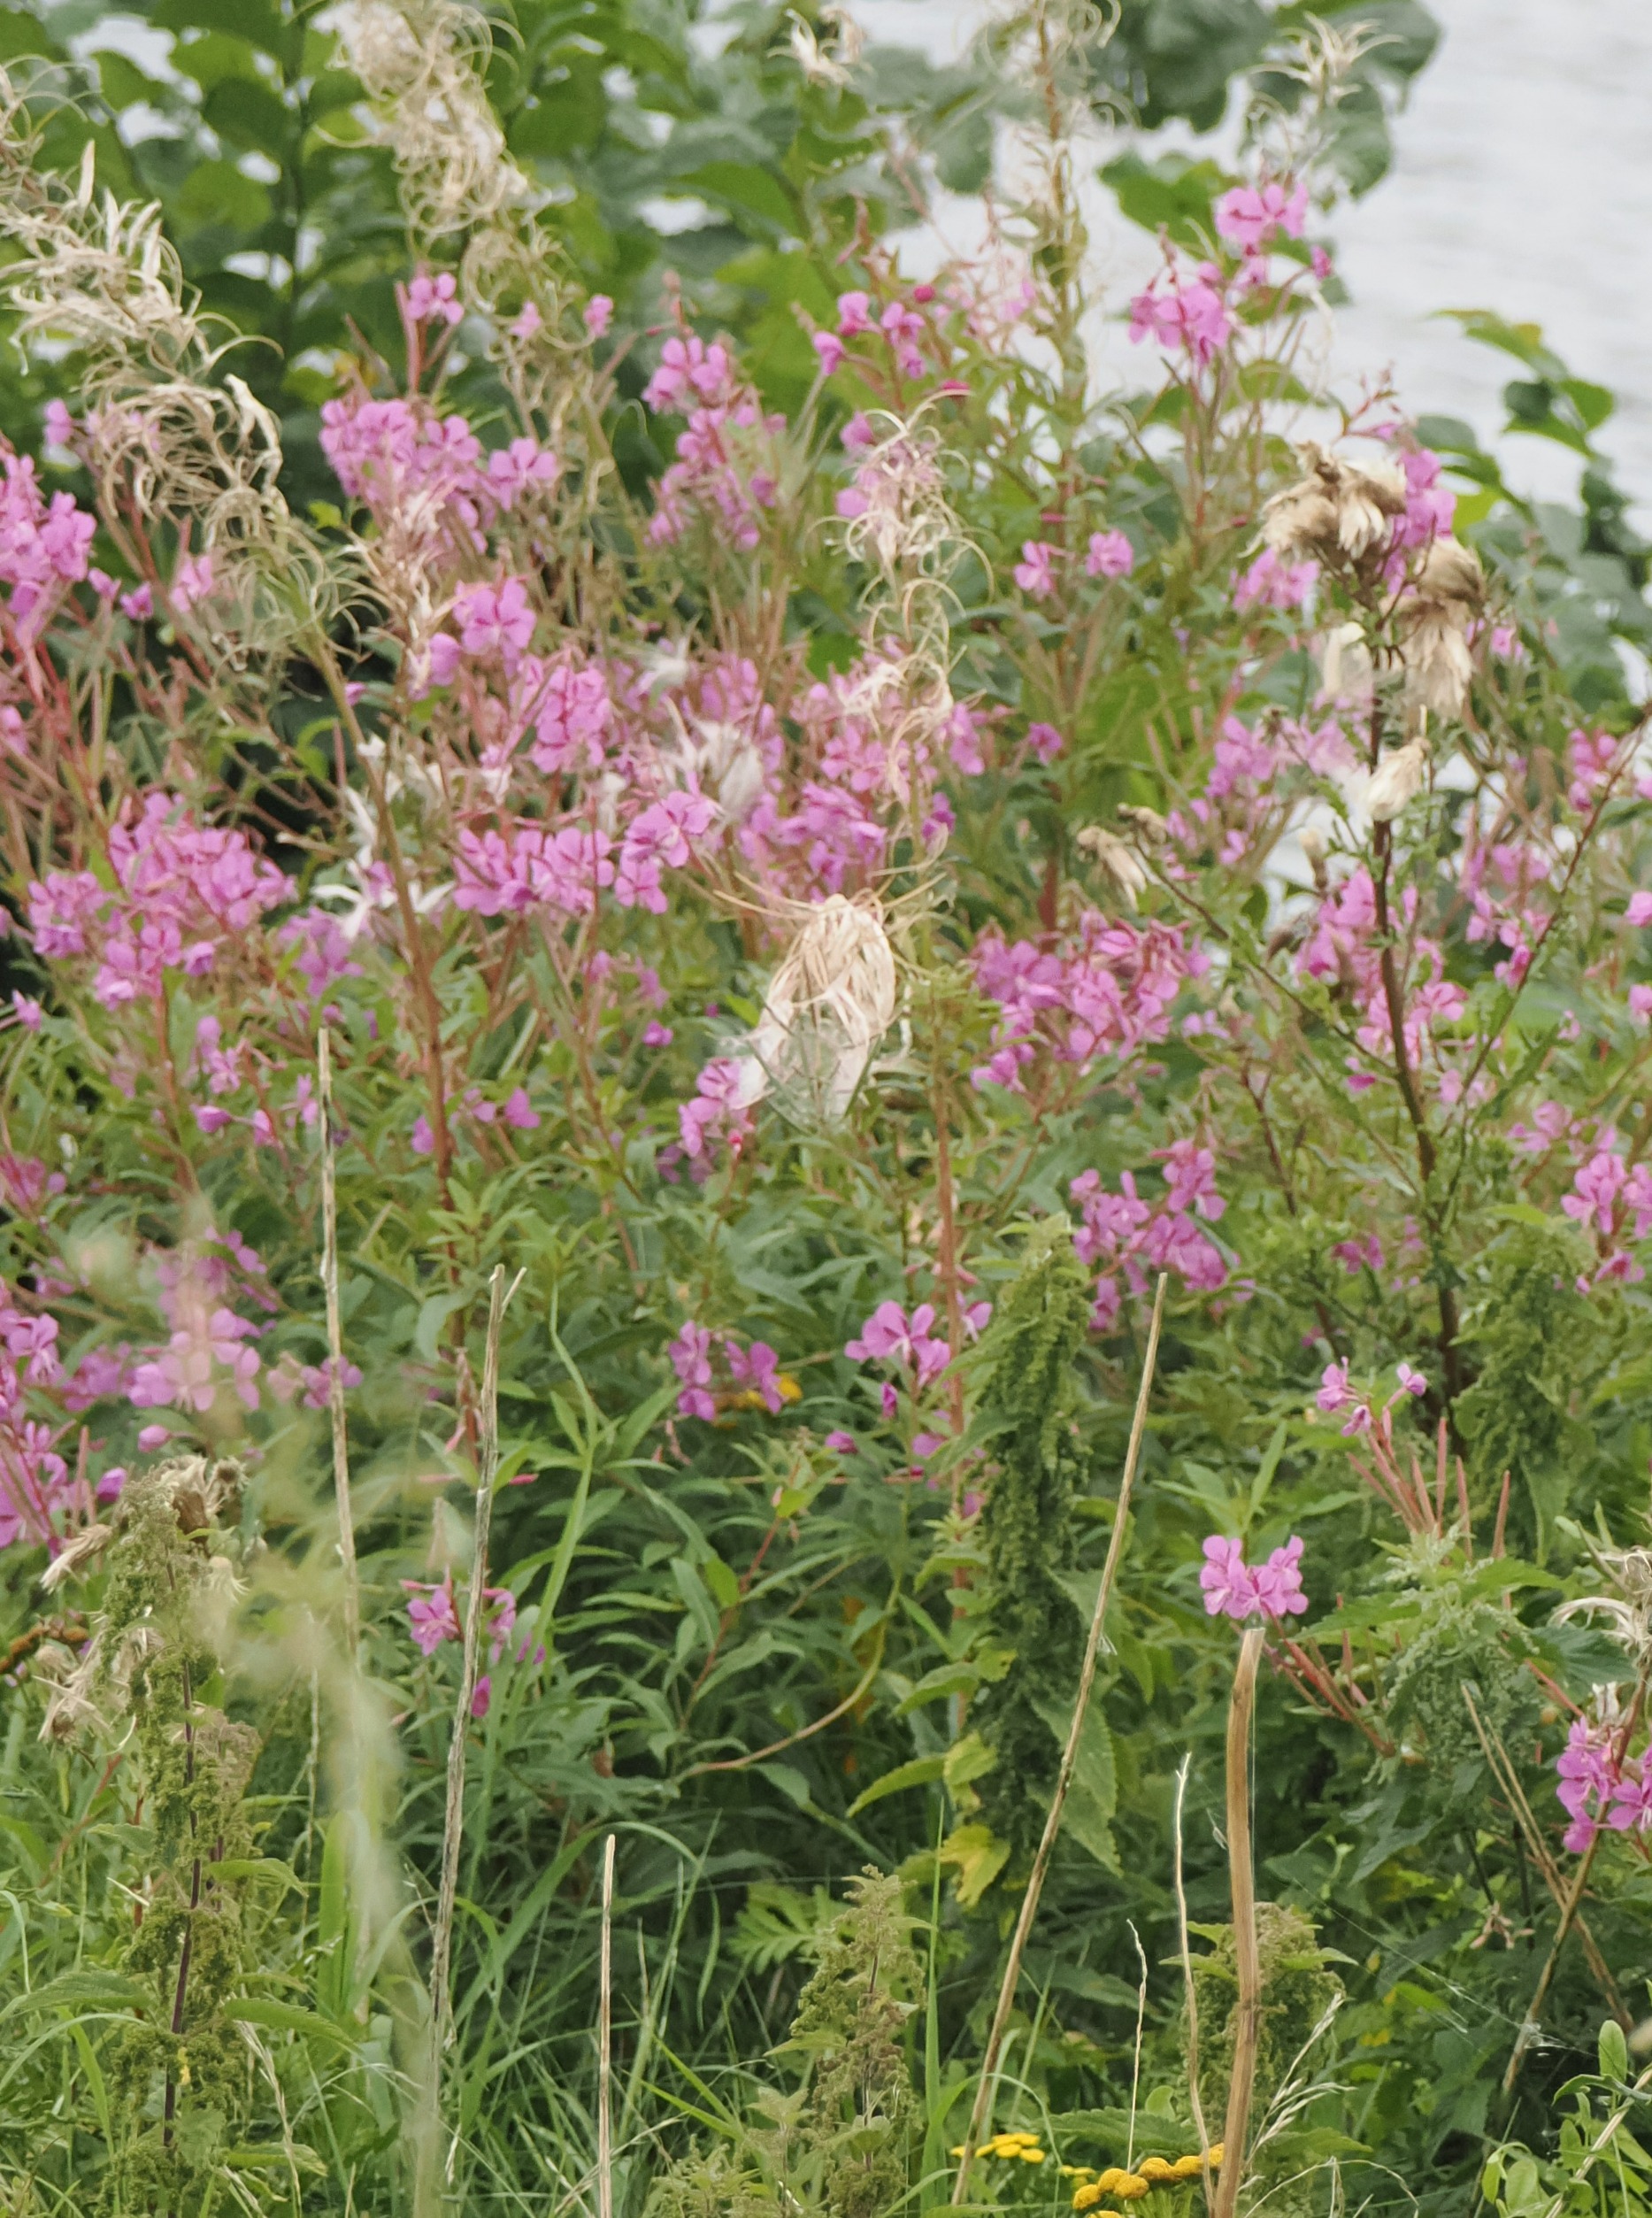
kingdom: Plantae
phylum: Tracheophyta
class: Magnoliopsida
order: Myrtales
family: Onagraceae
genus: Chamaenerion
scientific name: Chamaenerion angustifolium
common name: Gederams
